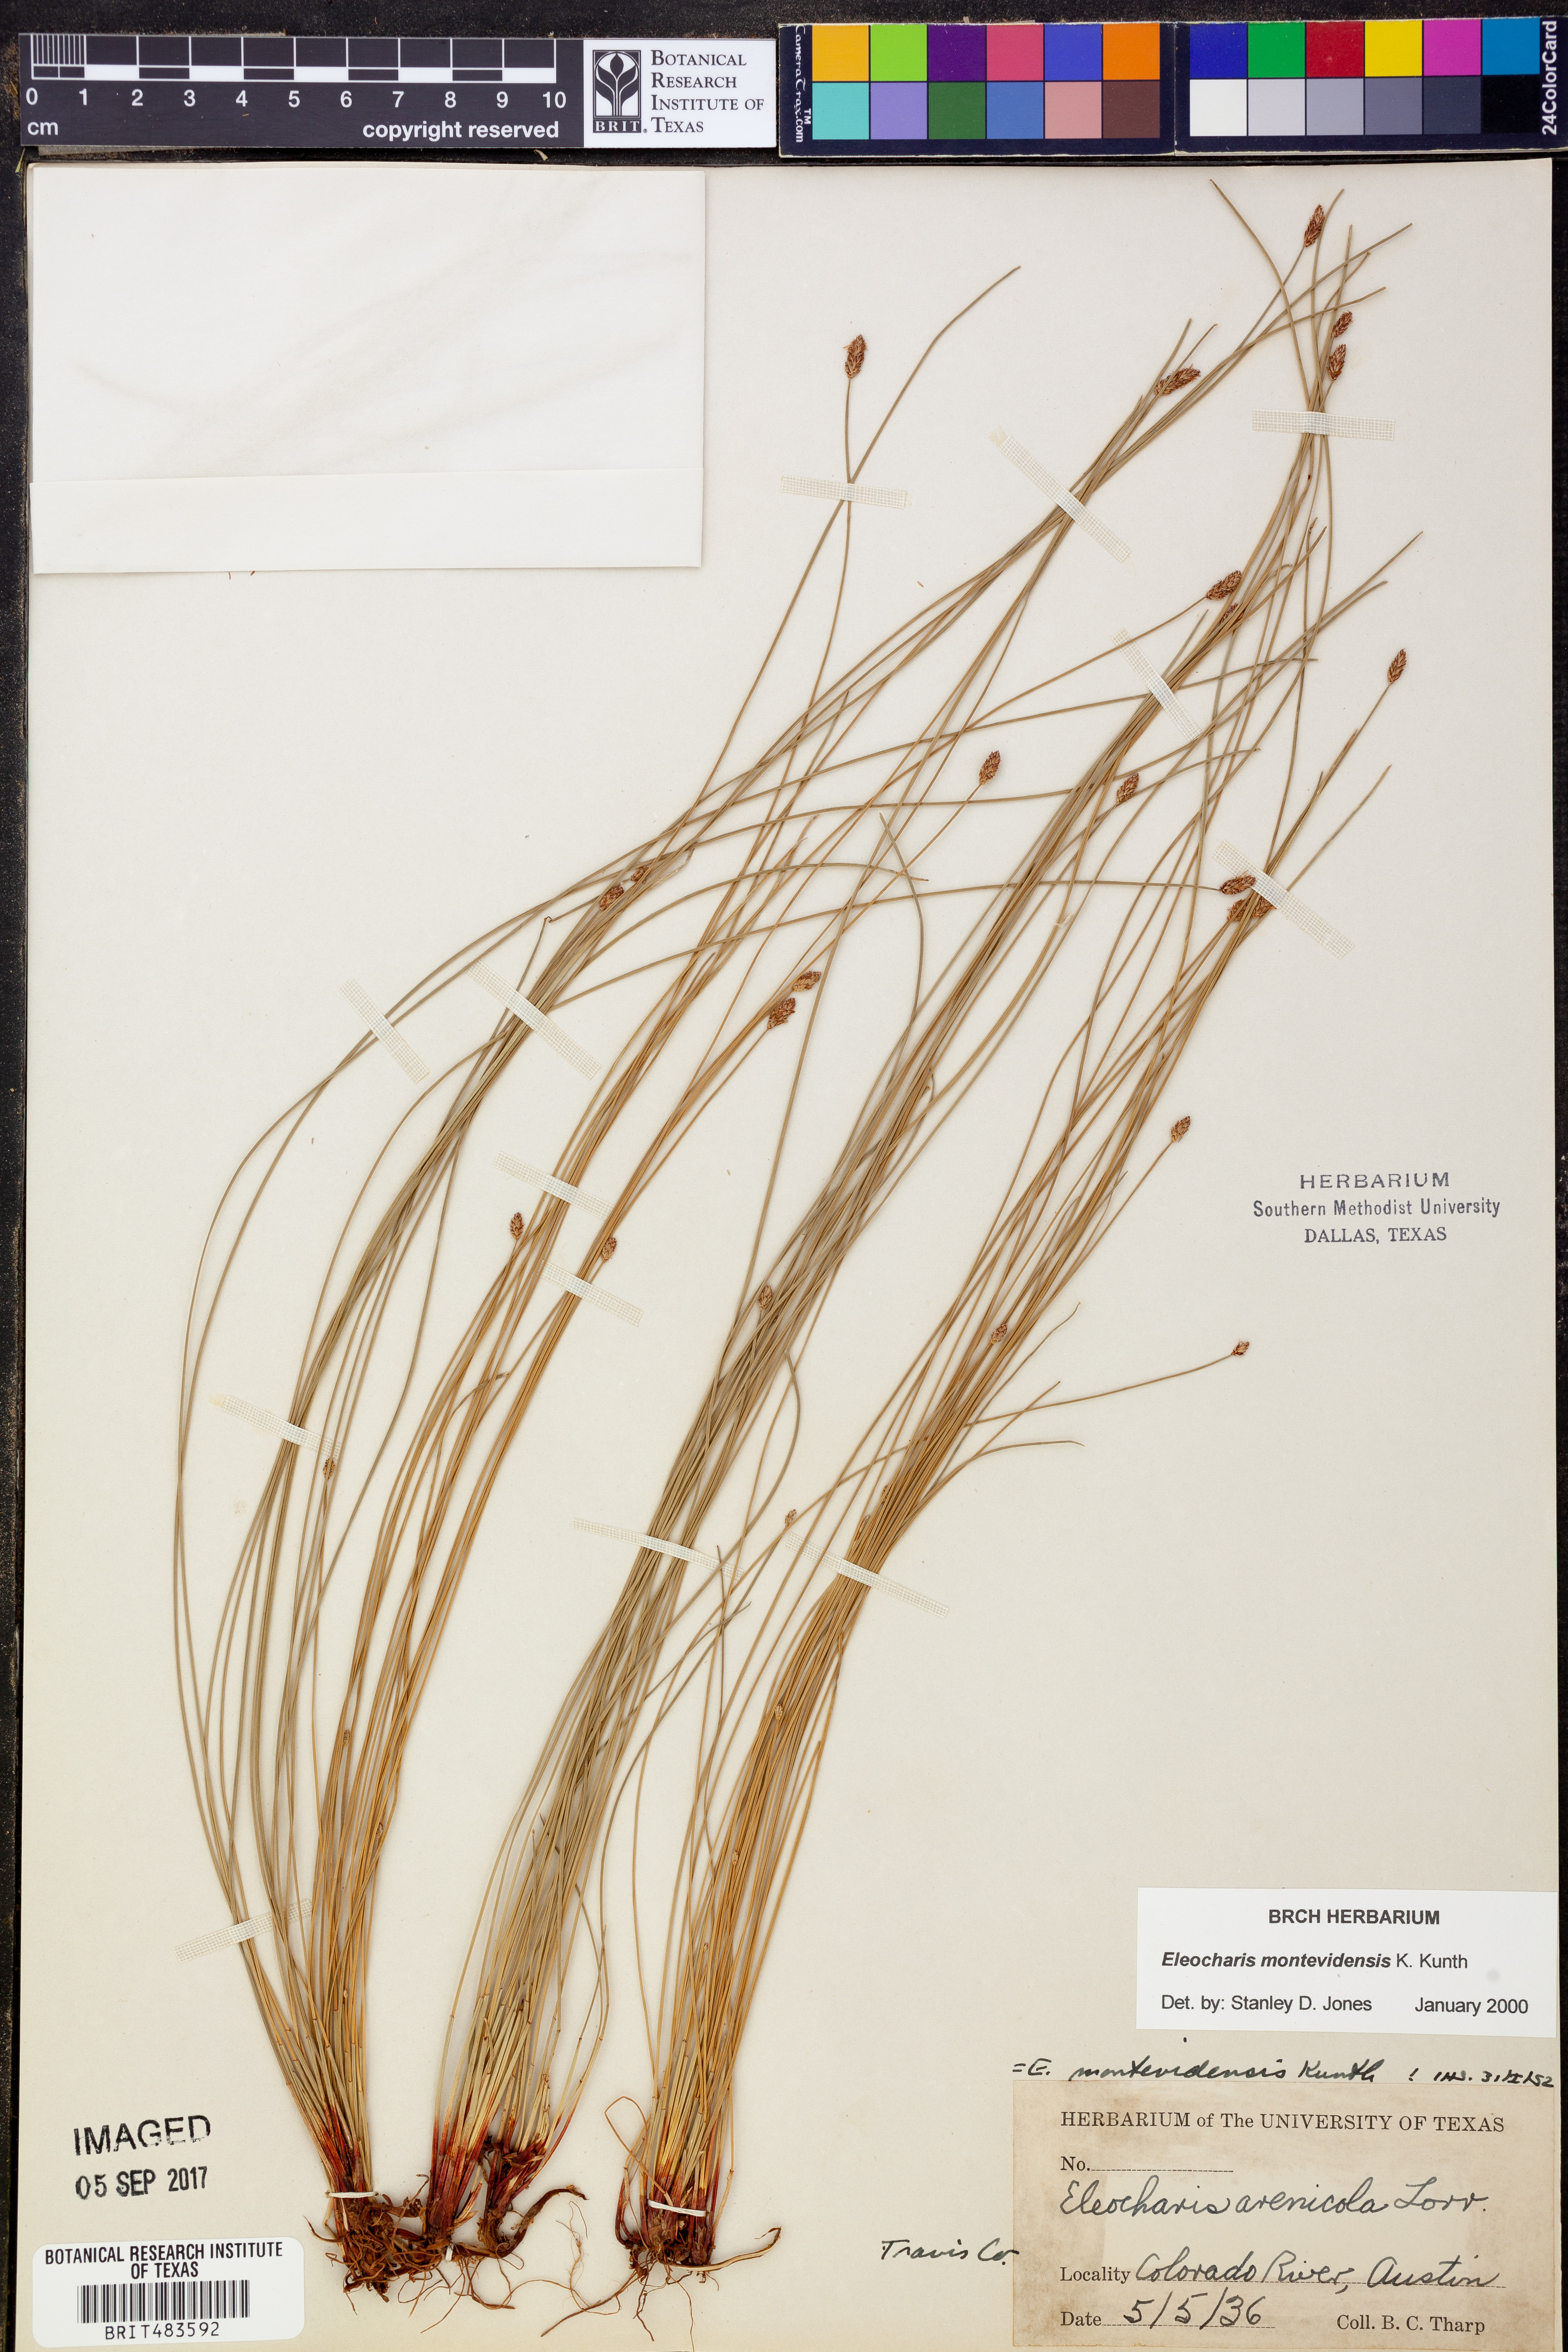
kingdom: Plantae
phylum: Tracheophyta
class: Liliopsida
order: Poales
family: Cyperaceae
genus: Eleocharis
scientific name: Eleocharis montevidensis
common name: Sand spike-rush
